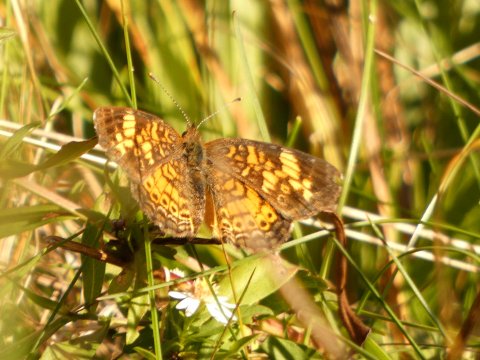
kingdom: Animalia
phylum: Arthropoda
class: Insecta
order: Lepidoptera
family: Nymphalidae
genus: Phyciodes
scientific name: Phyciodes tharos
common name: Pearl Crescent
